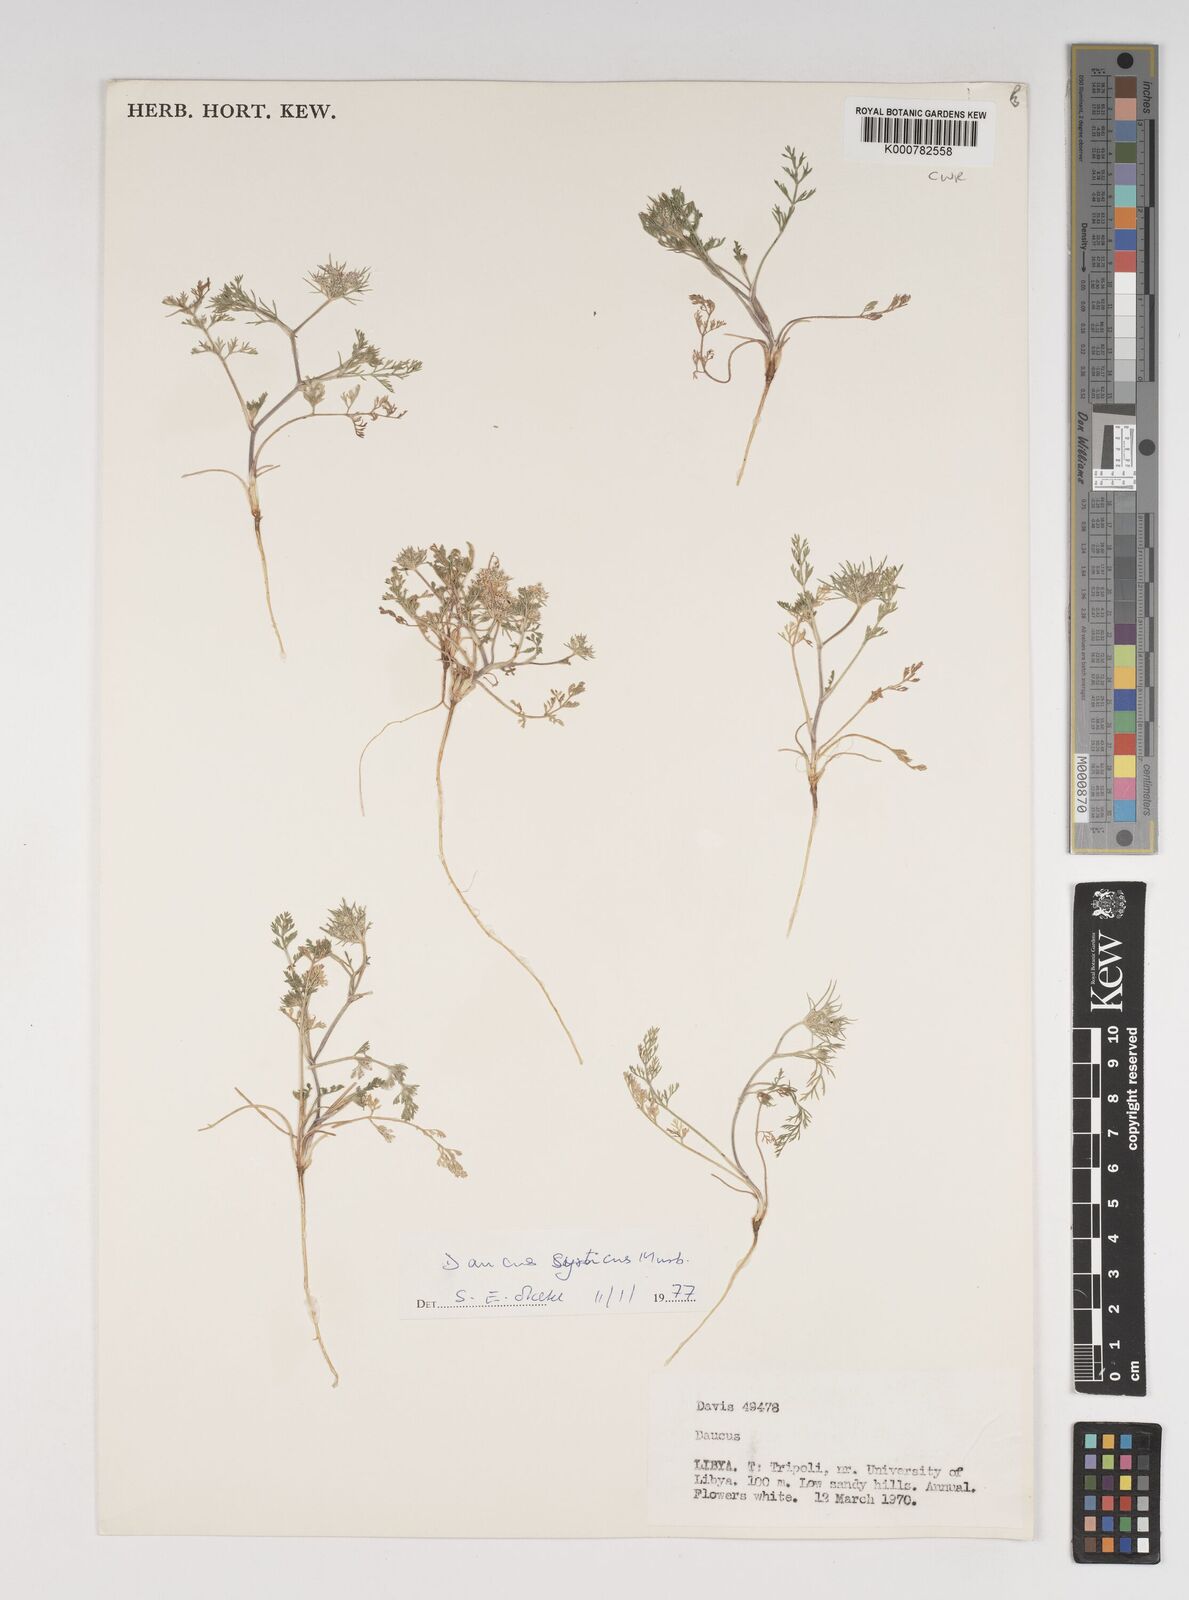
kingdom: Plantae
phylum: Tracheophyta
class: Magnoliopsida
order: Apiales
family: Apiaceae
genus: Daucus
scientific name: Daucus syrticus
